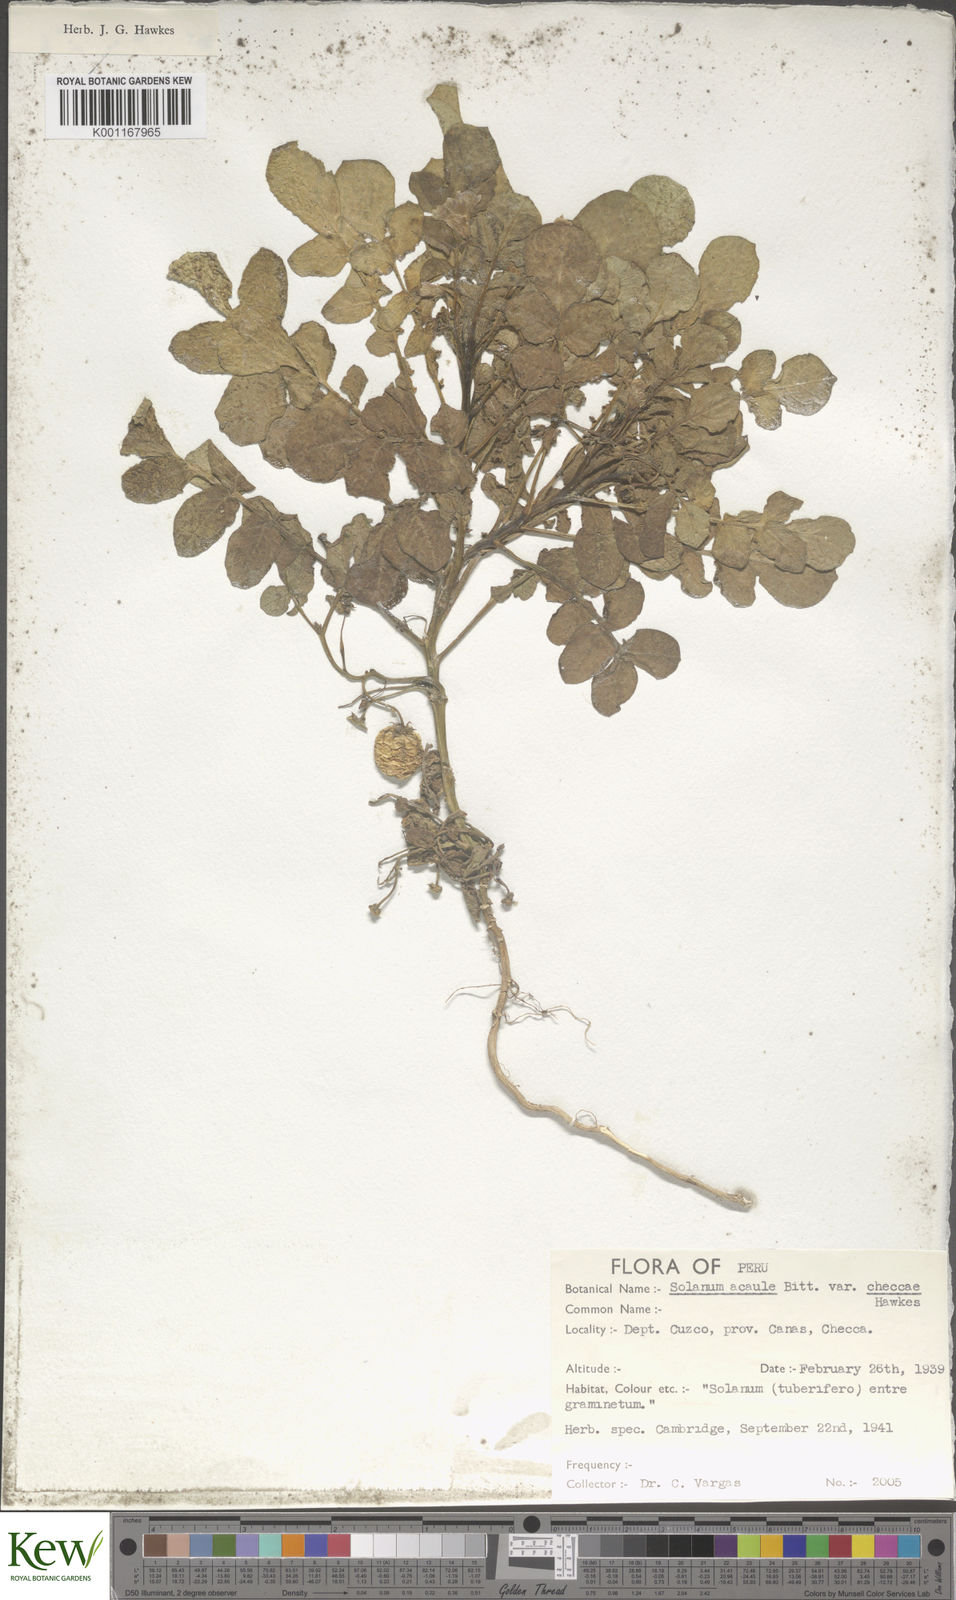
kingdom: Plantae
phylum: Tracheophyta
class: Magnoliopsida
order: Solanales
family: Solanaceae
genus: Solanum
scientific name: Solanum acaule
